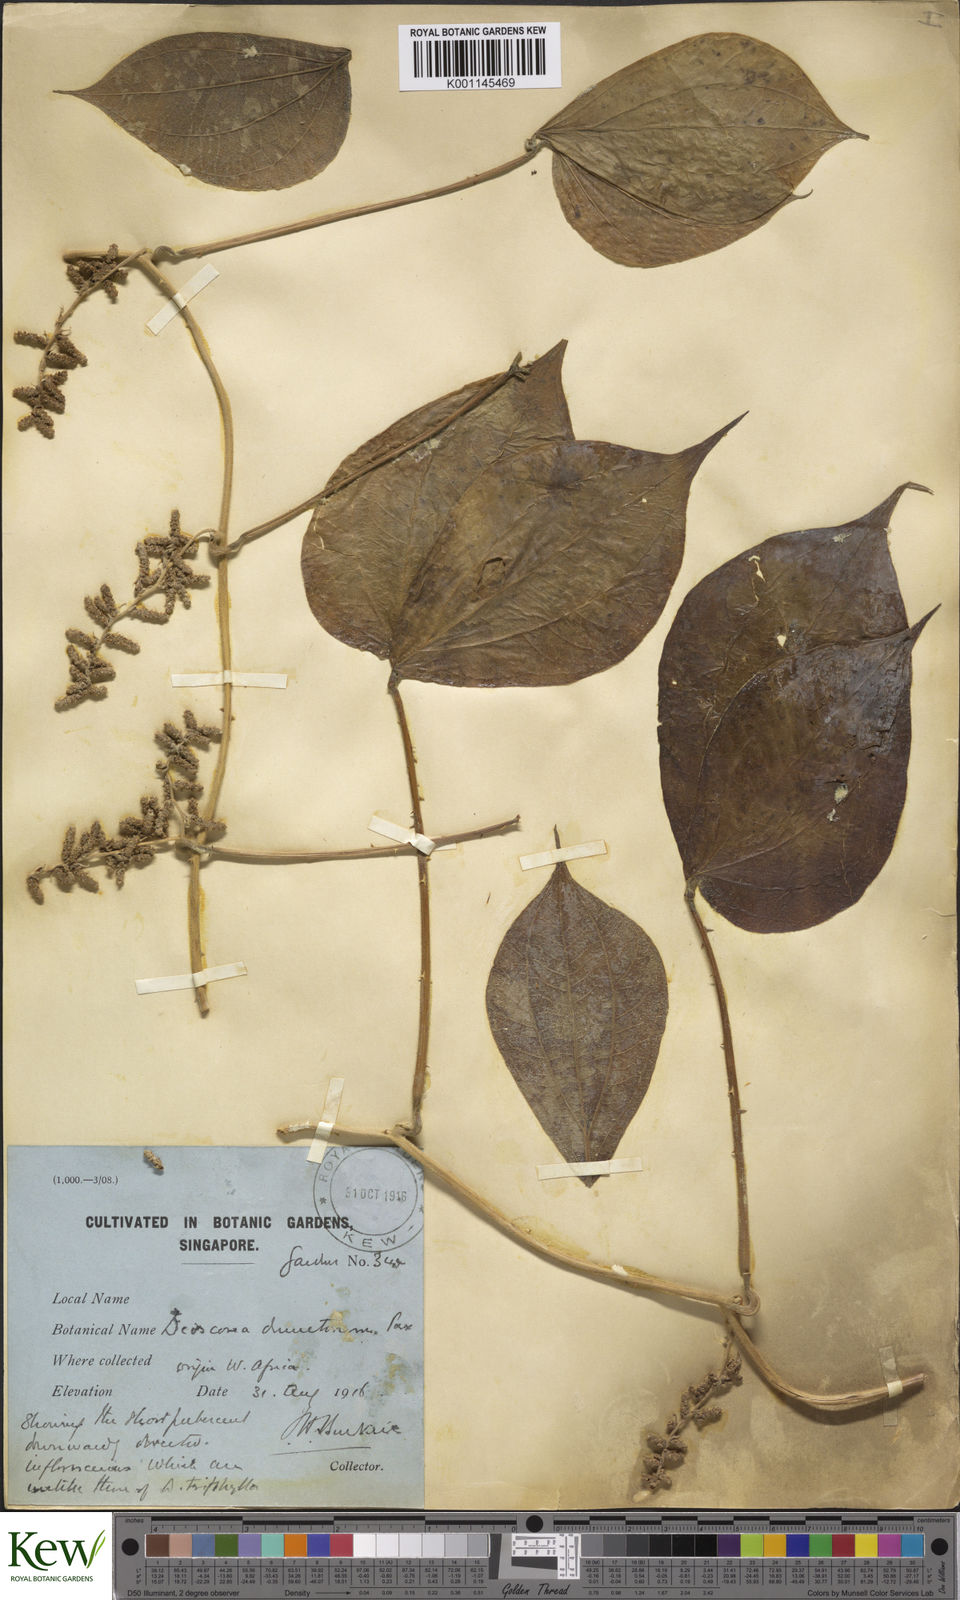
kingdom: Plantae
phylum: Tracheophyta
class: Liliopsida
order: Dioscoreales
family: Dioscoreaceae
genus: Dioscorea
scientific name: Dioscorea dumetorum
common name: African bitter yam
